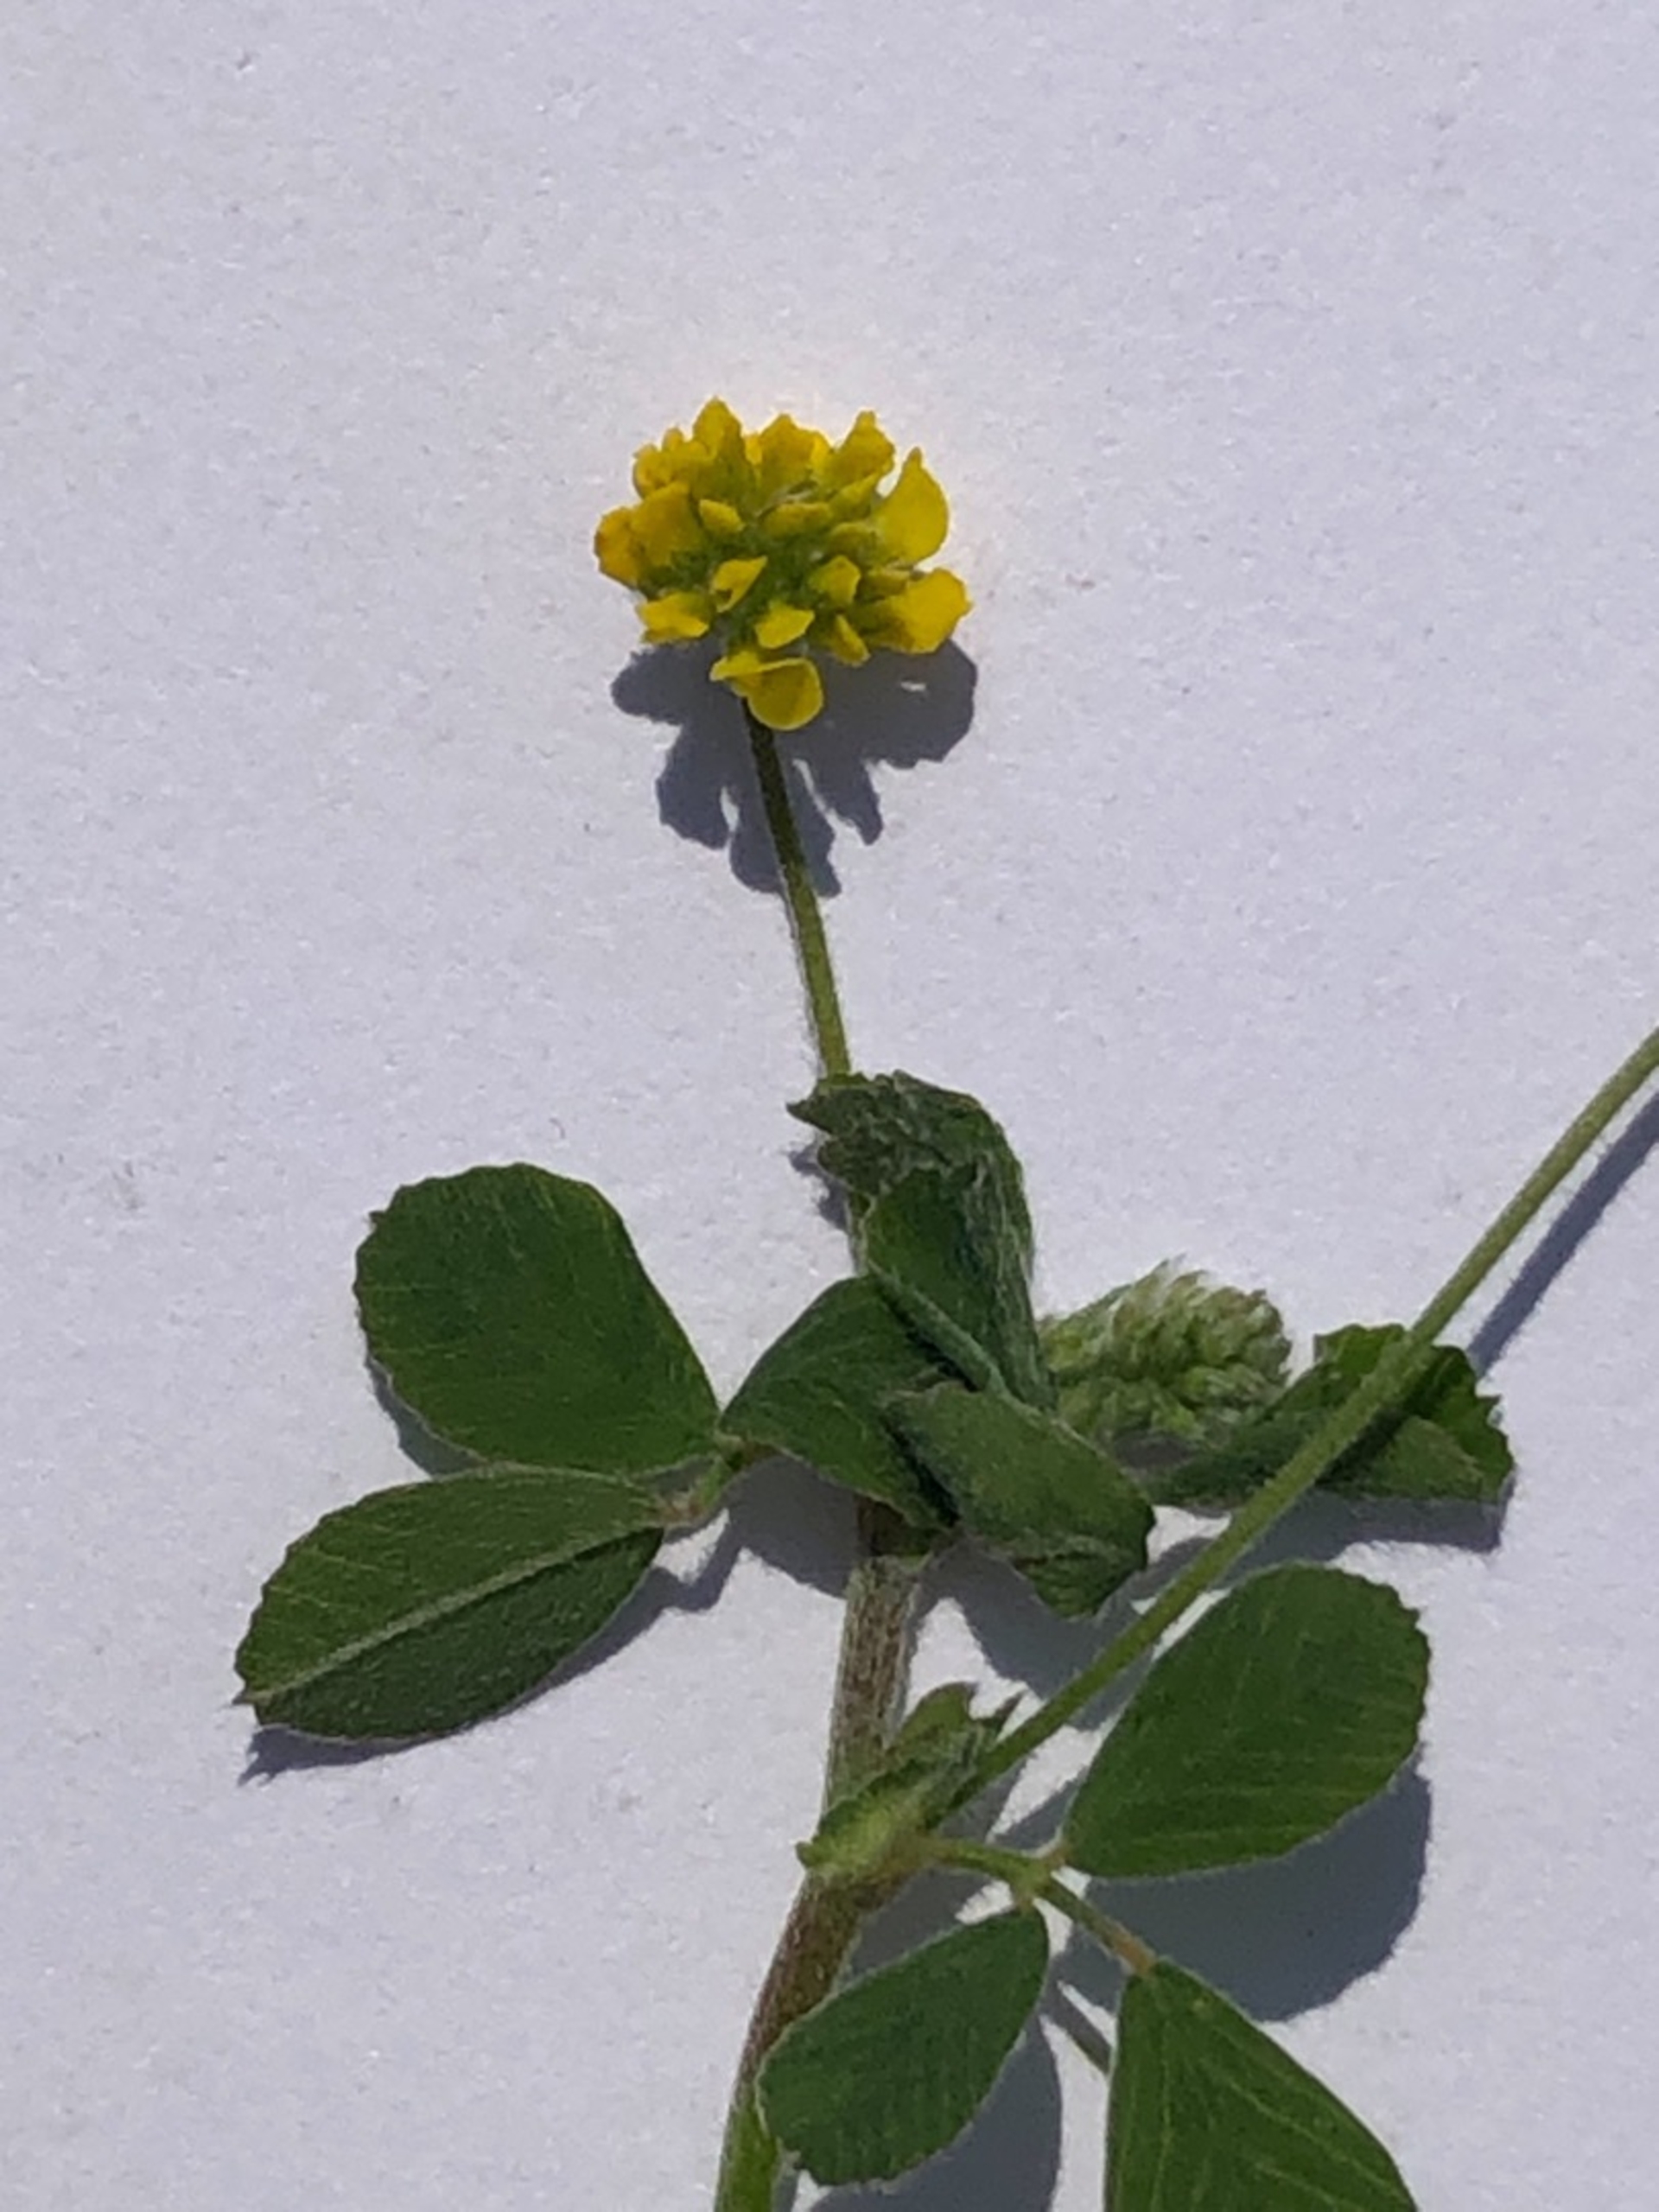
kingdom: Plantae
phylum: Tracheophyta
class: Magnoliopsida
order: Fabales
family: Fabaceae
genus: Medicago
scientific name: Medicago lupulina
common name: Humle-sneglebælg
